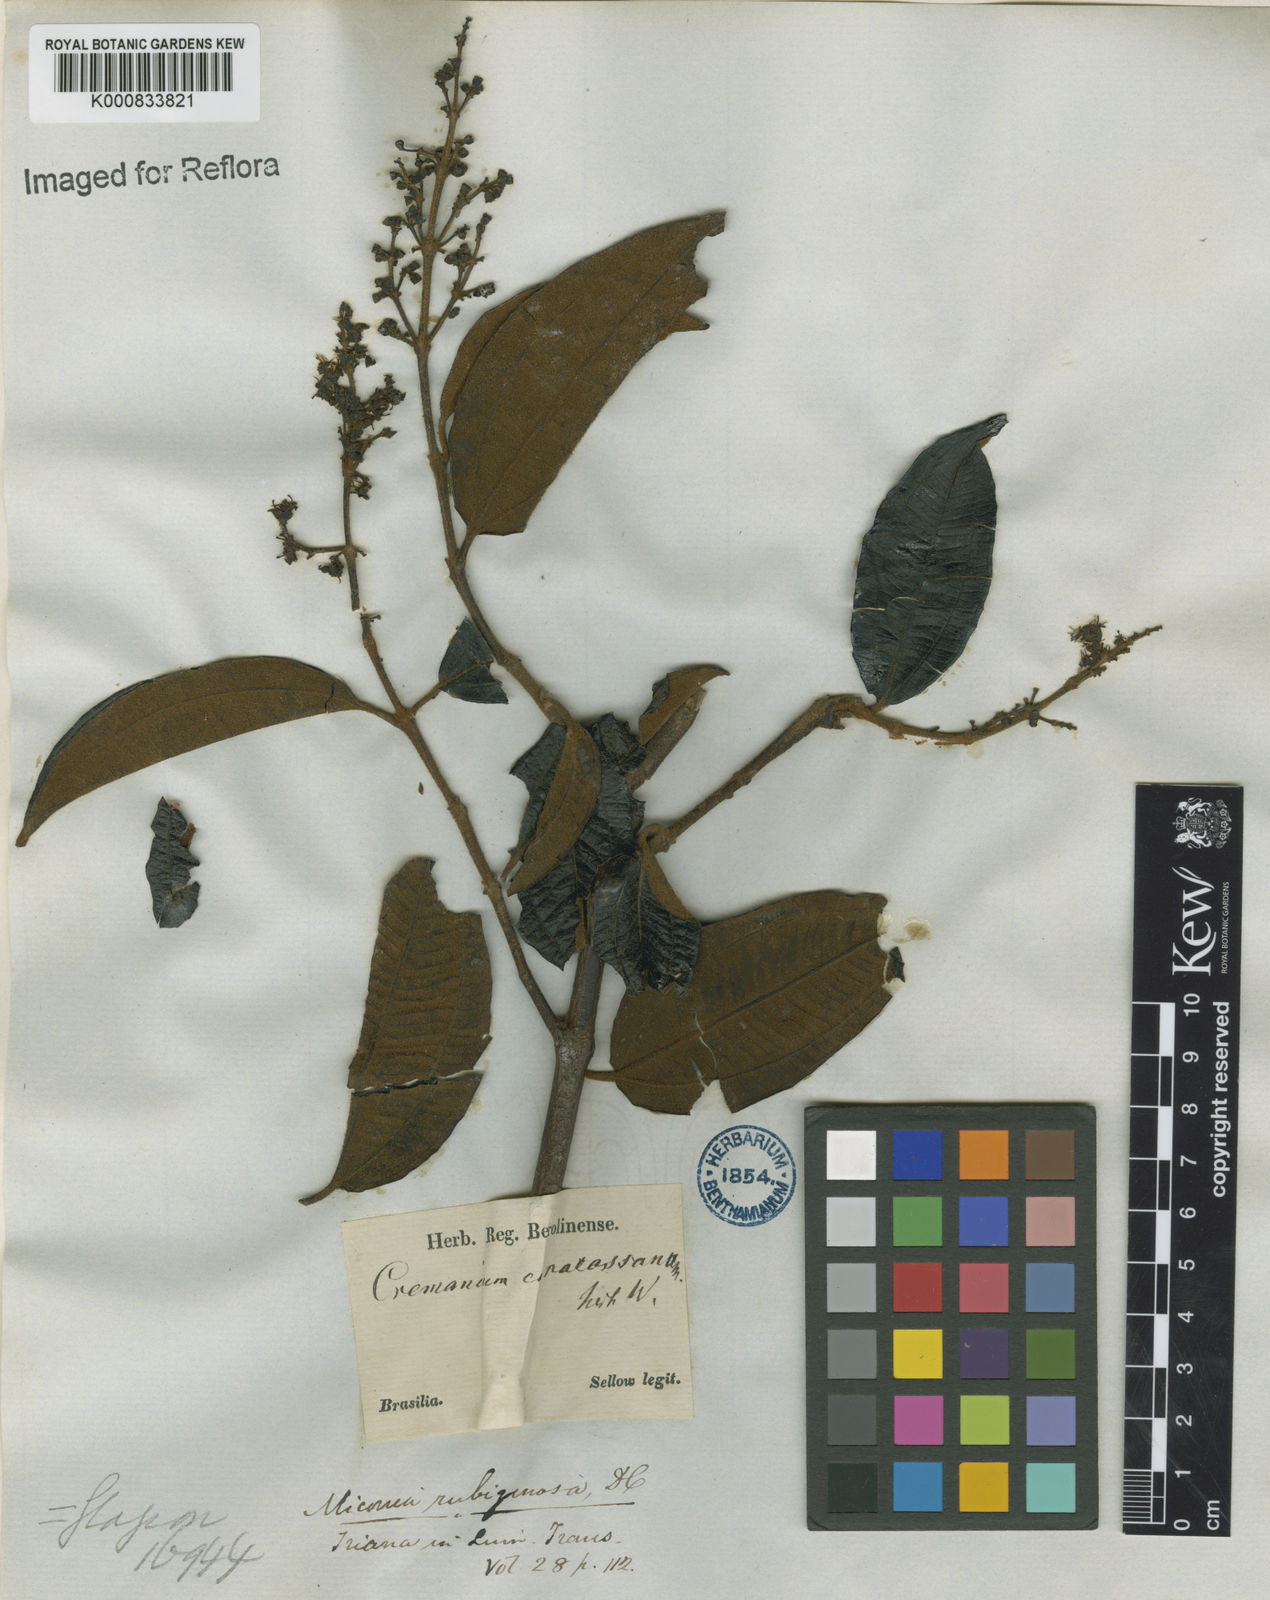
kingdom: Plantae
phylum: Tracheophyta
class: Magnoliopsida
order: Myrtales
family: Melastomataceae
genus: Miconia
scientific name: Miconia rubiginosa
